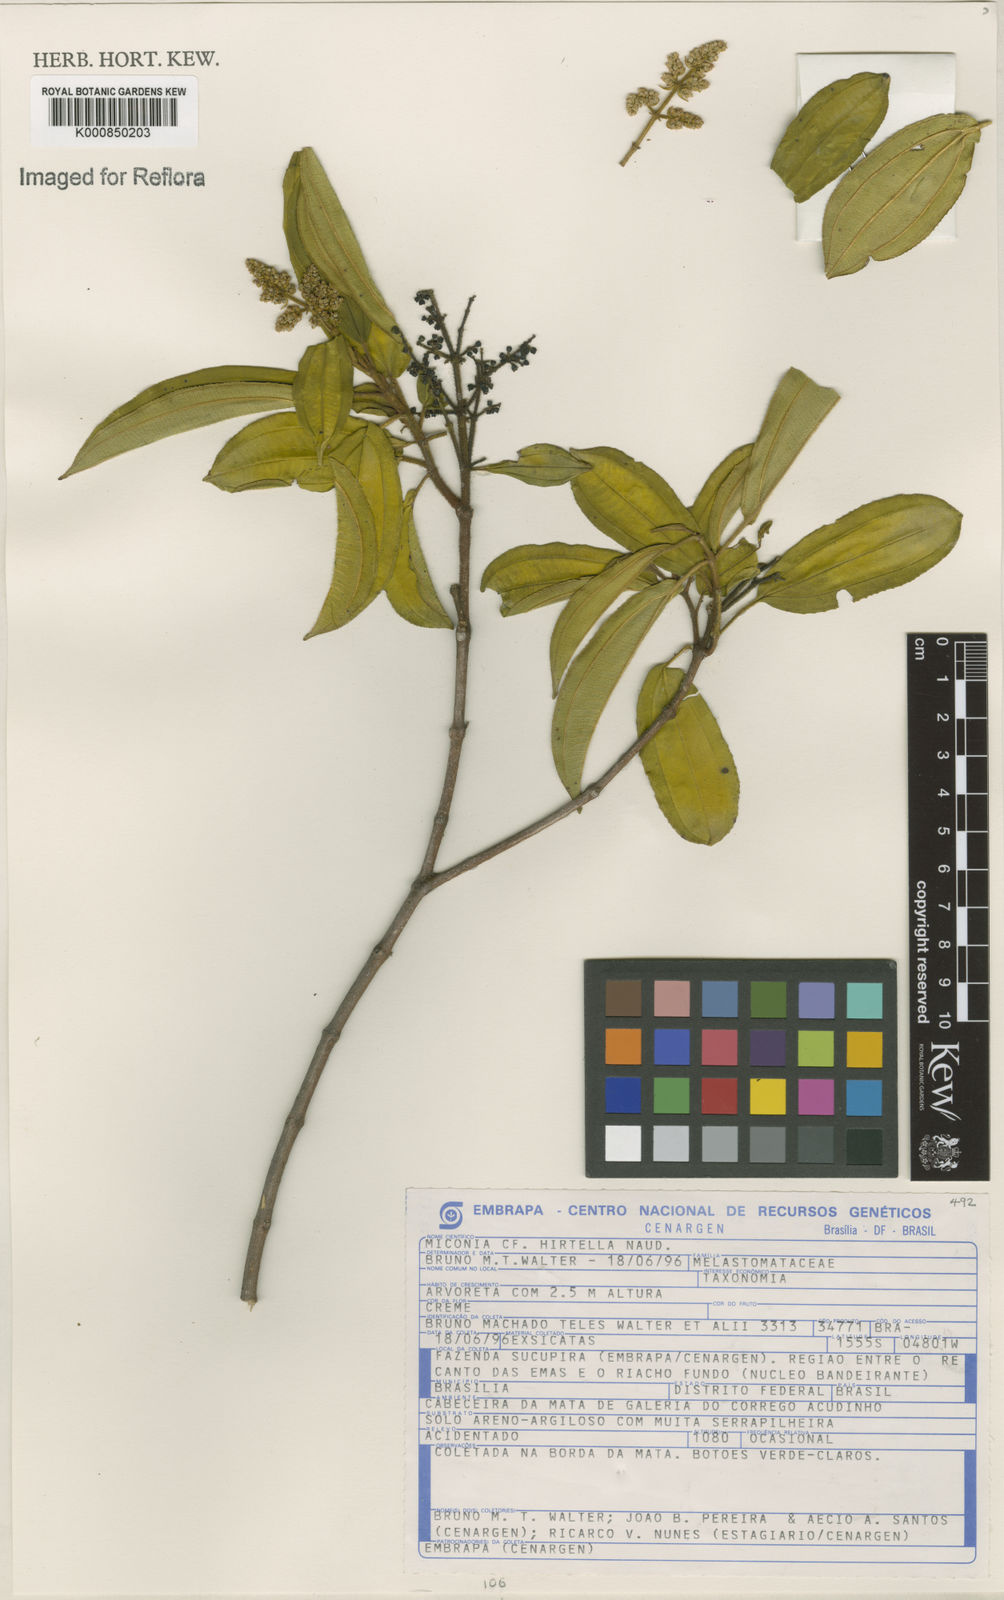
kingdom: Plantae
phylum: Tracheophyta
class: Magnoliopsida
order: Myrtales
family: Melastomataceae
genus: Miconia
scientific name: Miconia hirta
